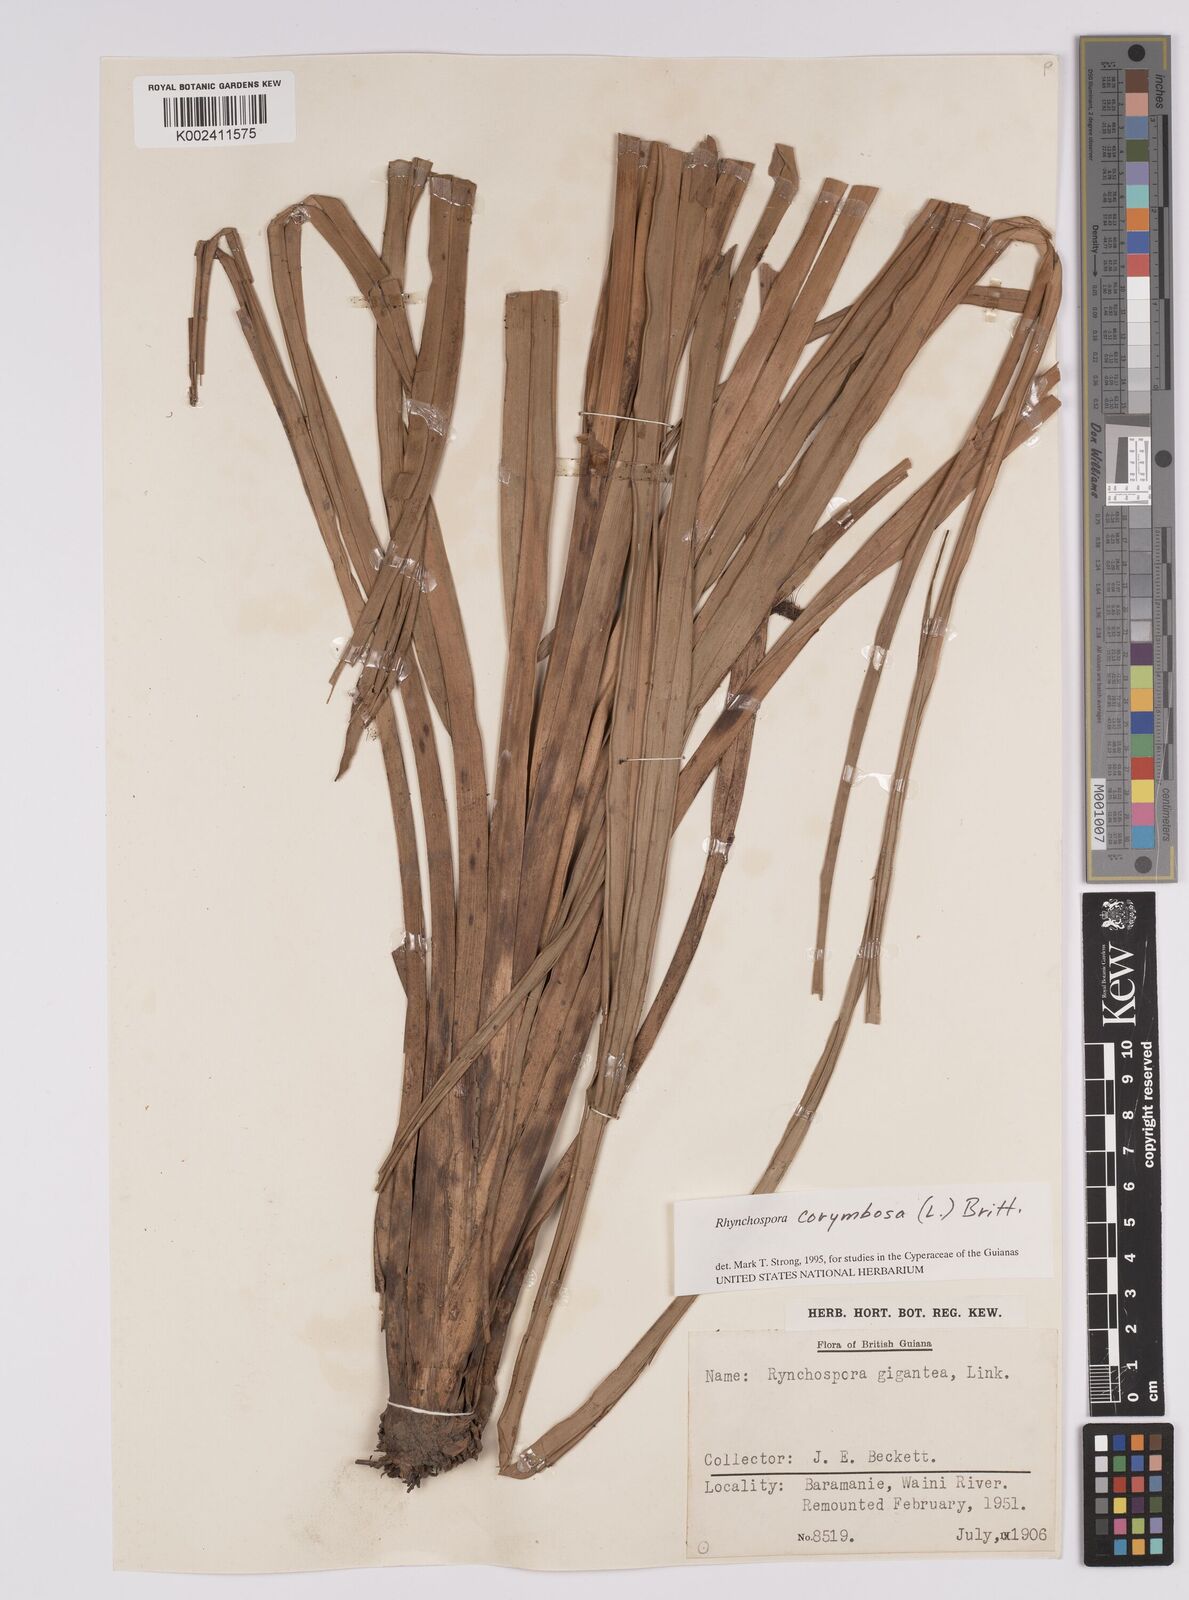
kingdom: Plantae
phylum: Tracheophyta
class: Liliopsida
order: Poales
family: Cyperaceae
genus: Rhynchospora
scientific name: Rhynchospora gigantea
